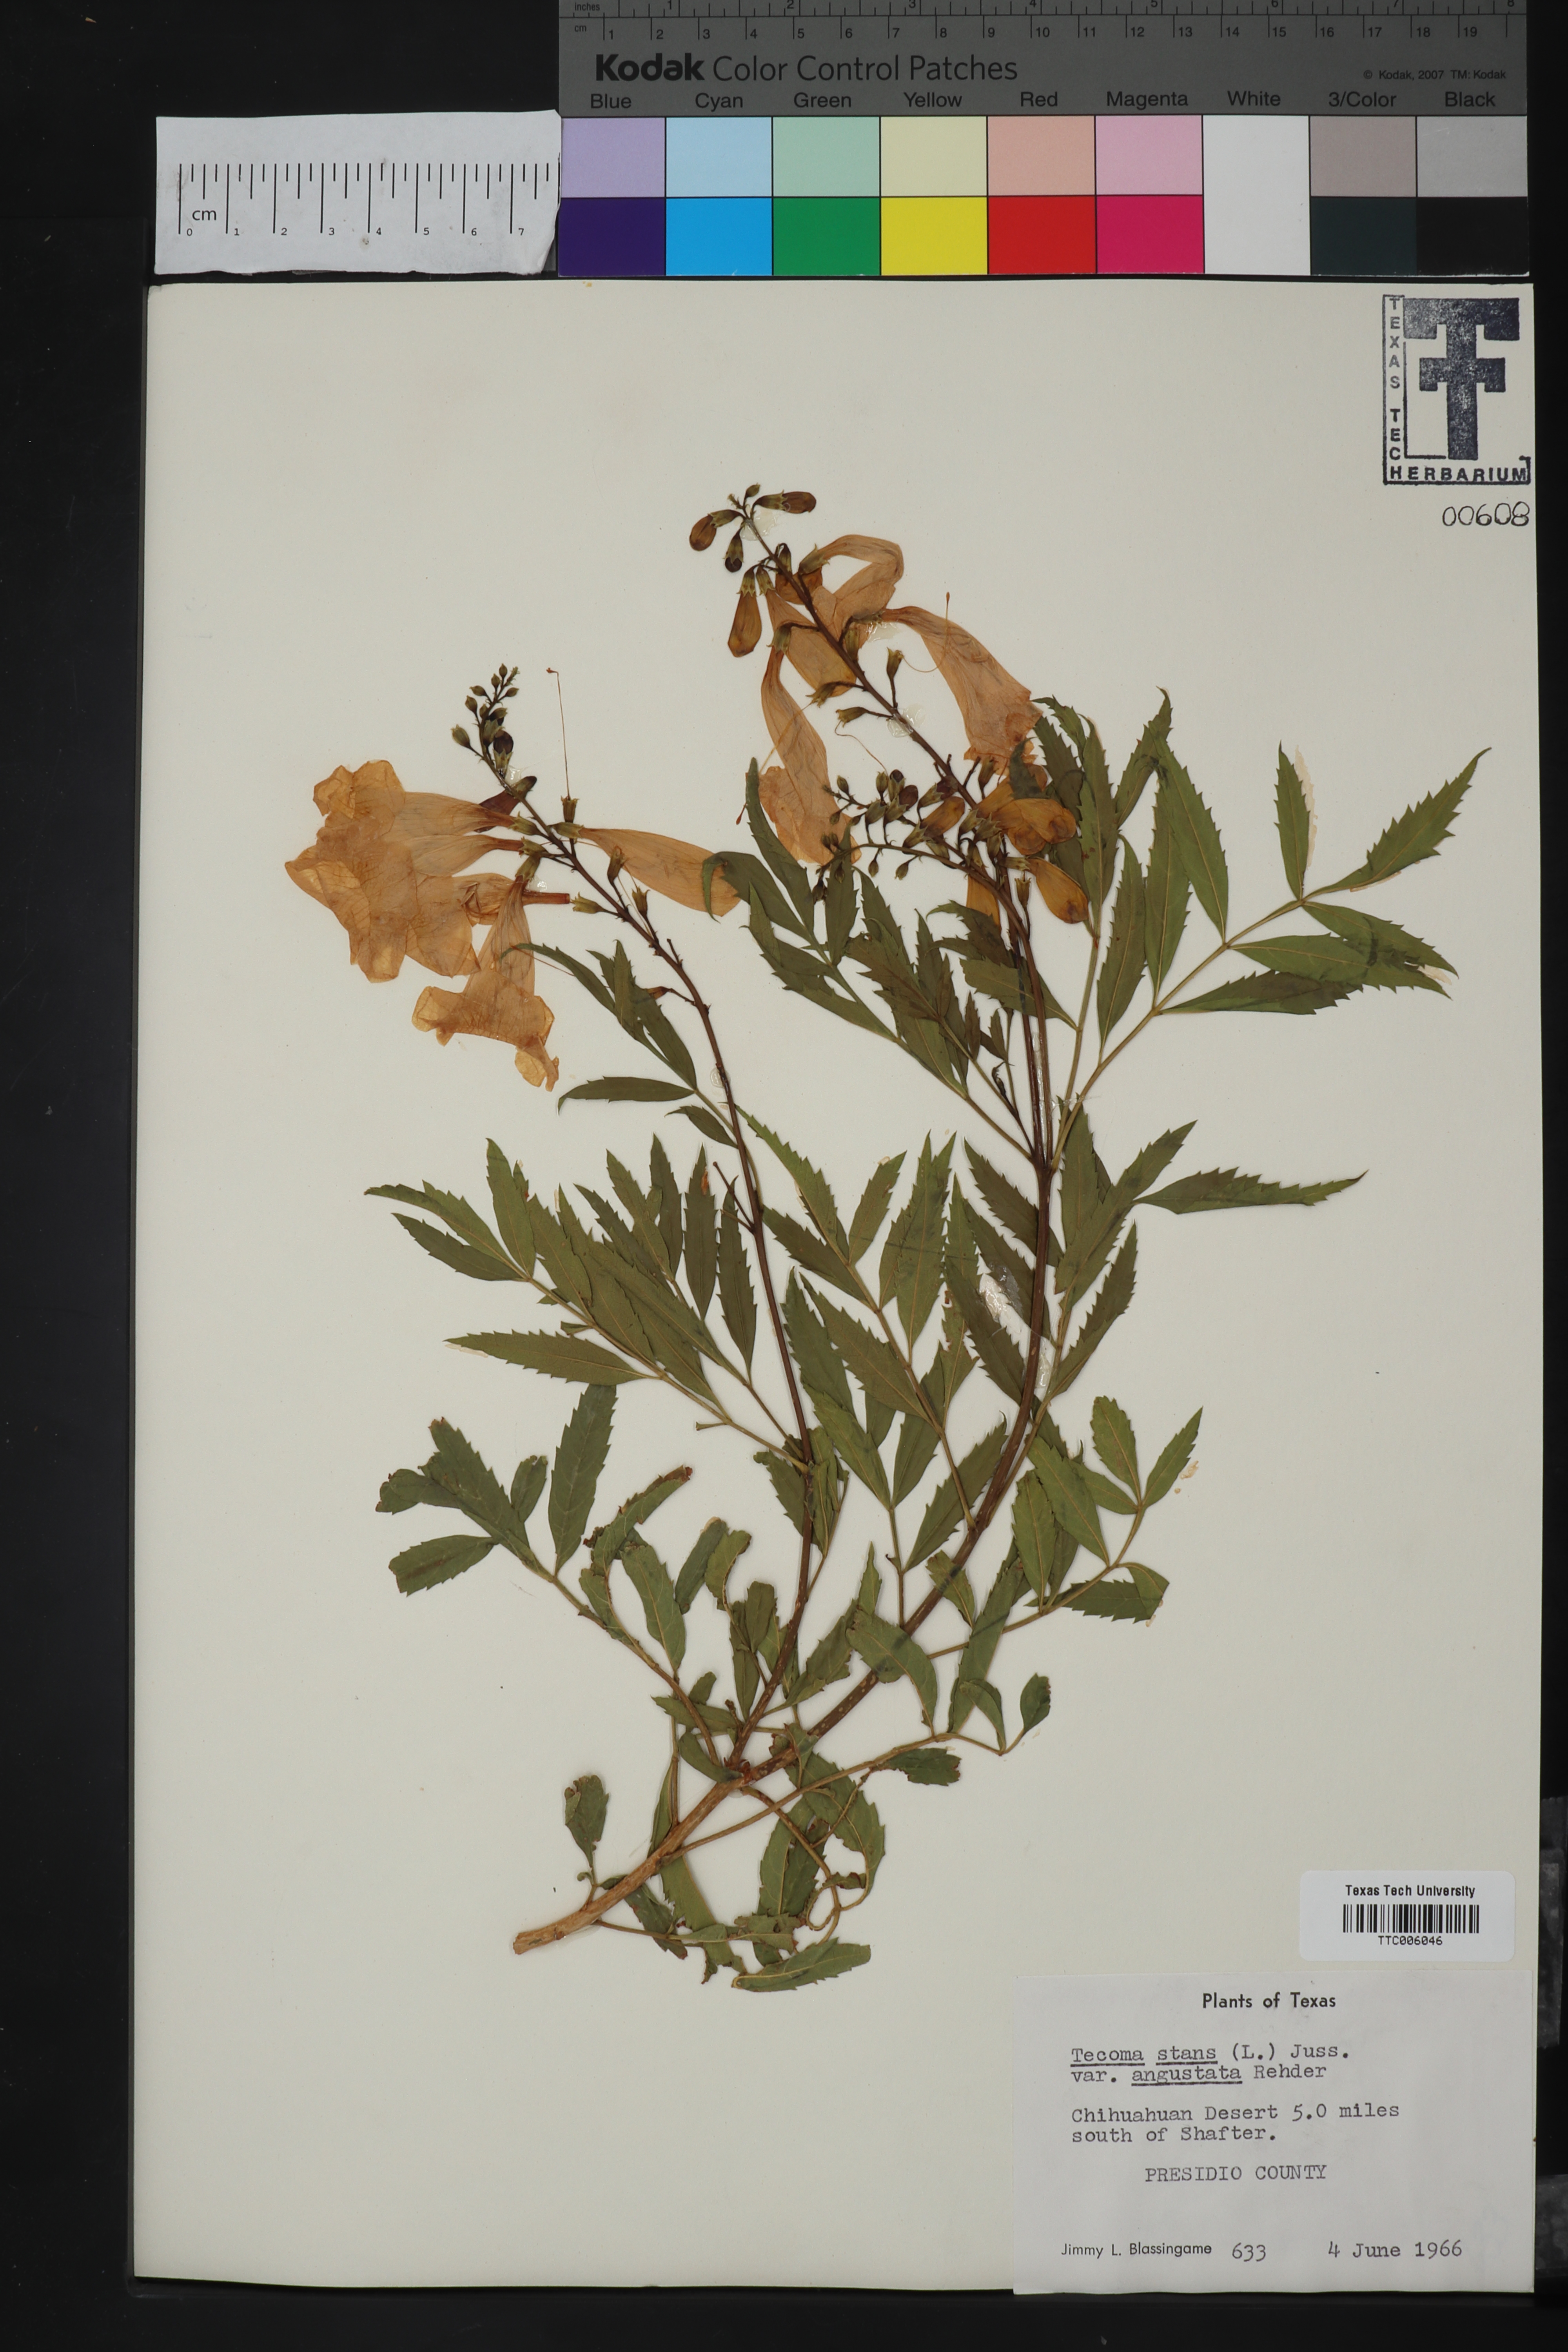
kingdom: Plantae
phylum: Tracheophyta
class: Magnoliopsida
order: Lamiales
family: Bignoniaceae
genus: Tecoma
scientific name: Tecoma stans
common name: Yellow trumpetbush
